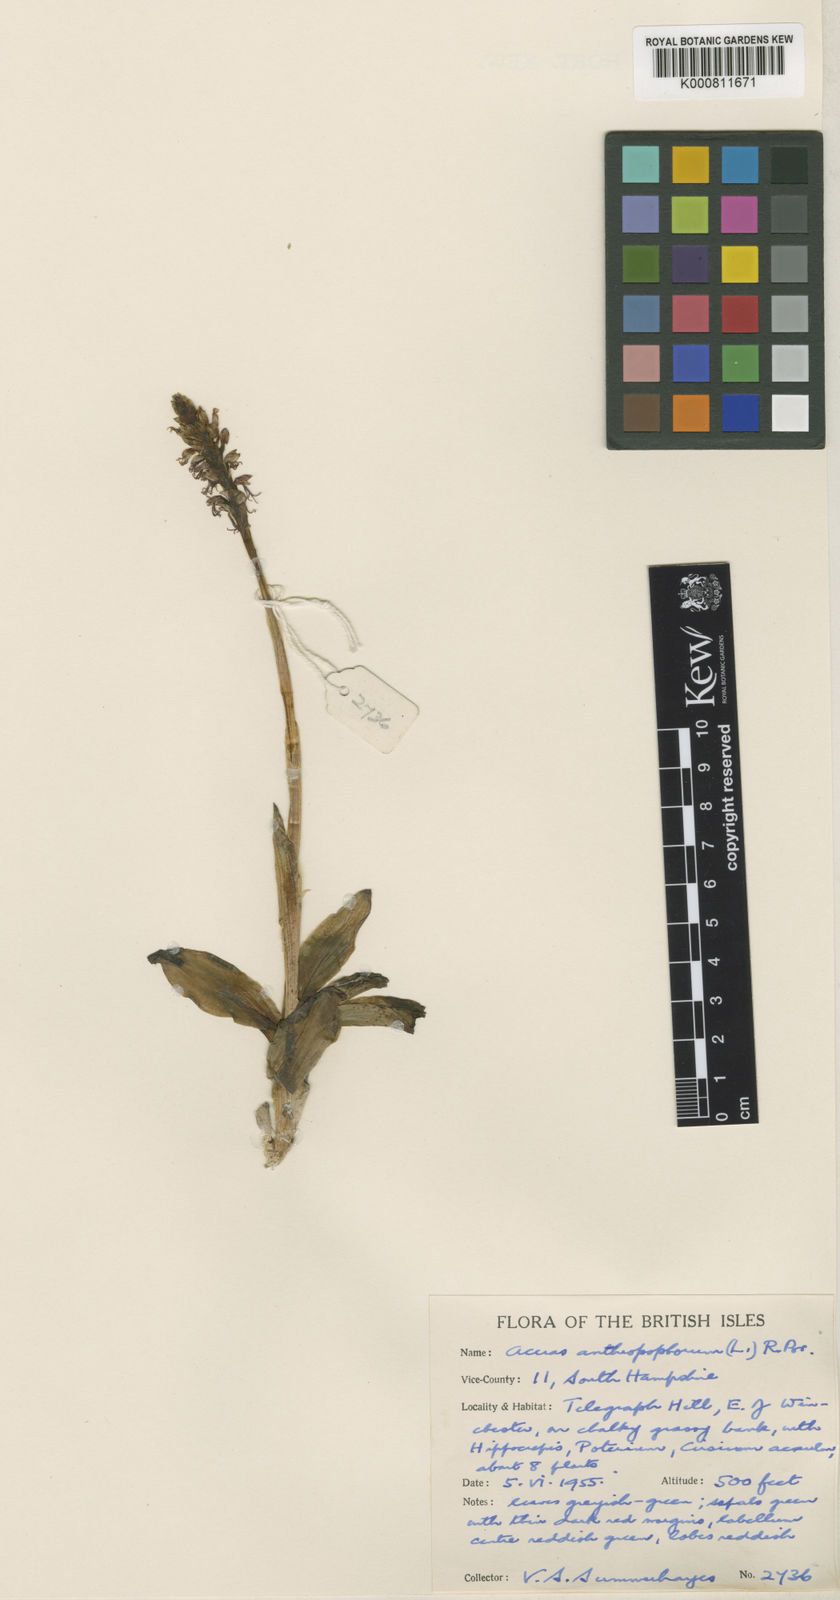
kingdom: Plantae
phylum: Tracheophyta
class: Liliopsida
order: Asparagales
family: Orchidaceae
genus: Orchis
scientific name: Orchis
